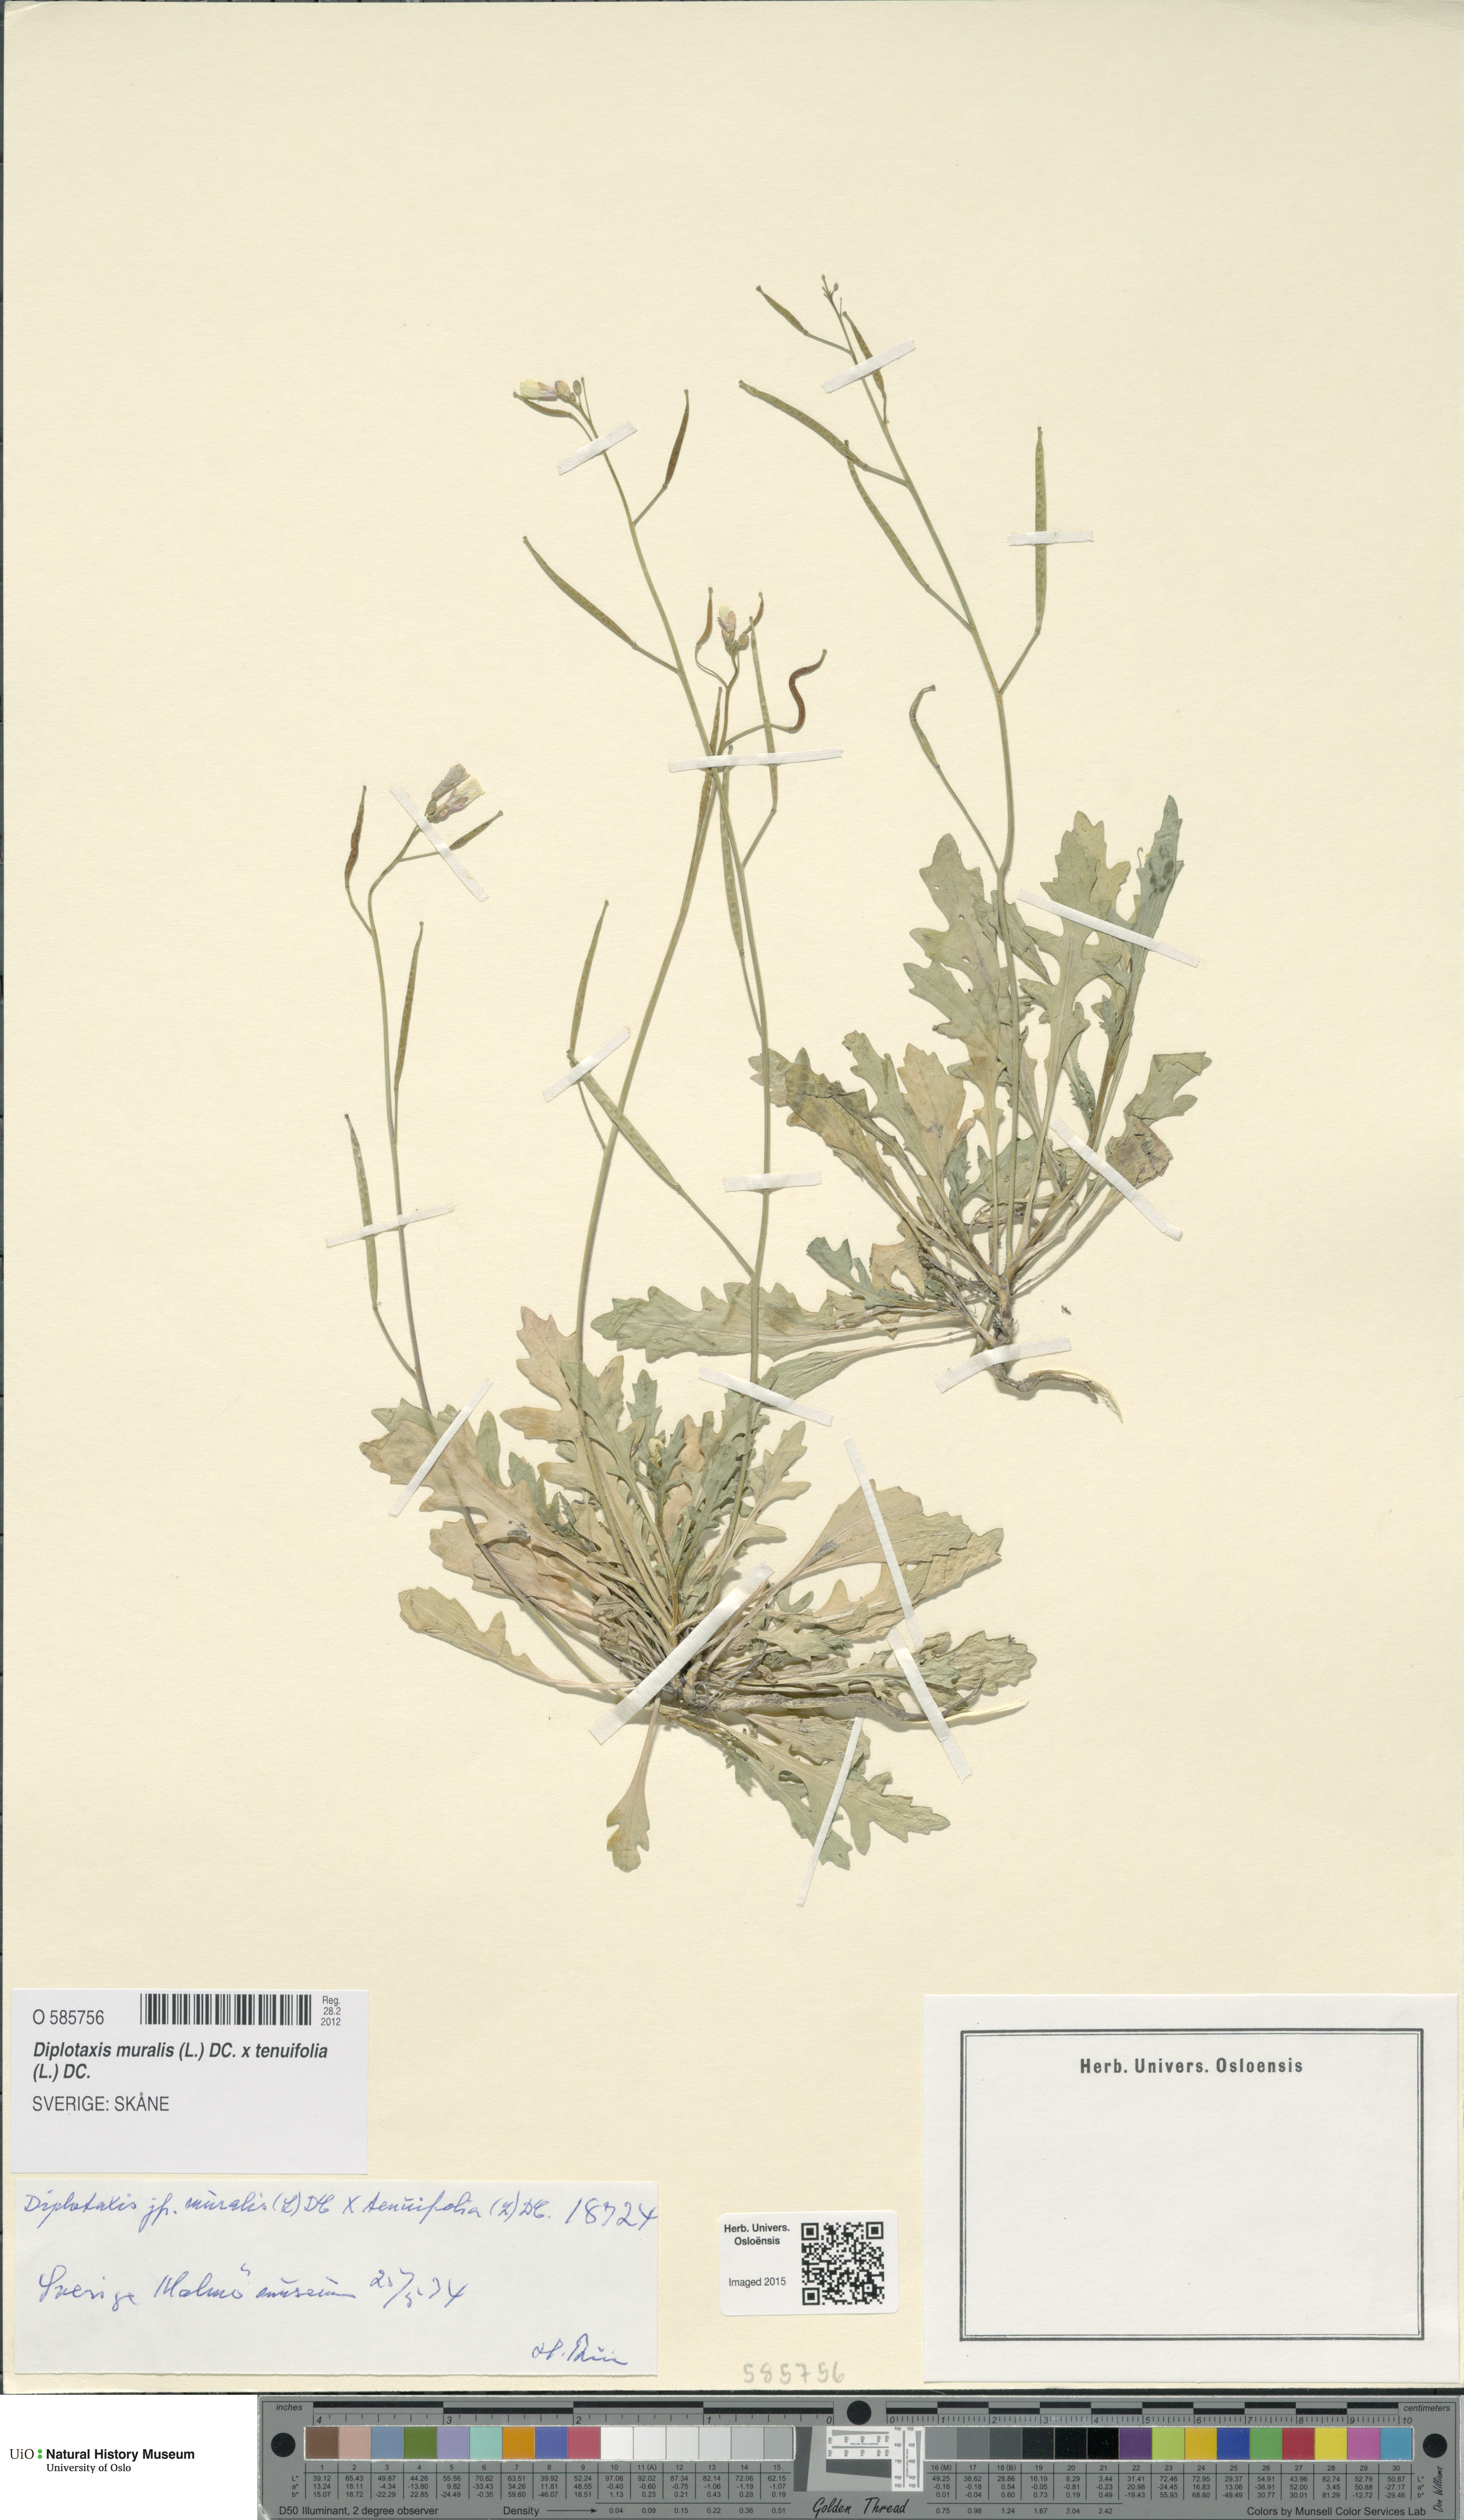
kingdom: Plantae
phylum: Tracheophyta
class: Magnoliopsida
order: Brassicales
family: Brassicaceae
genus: Diplotaxis
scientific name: Diplotaxis
